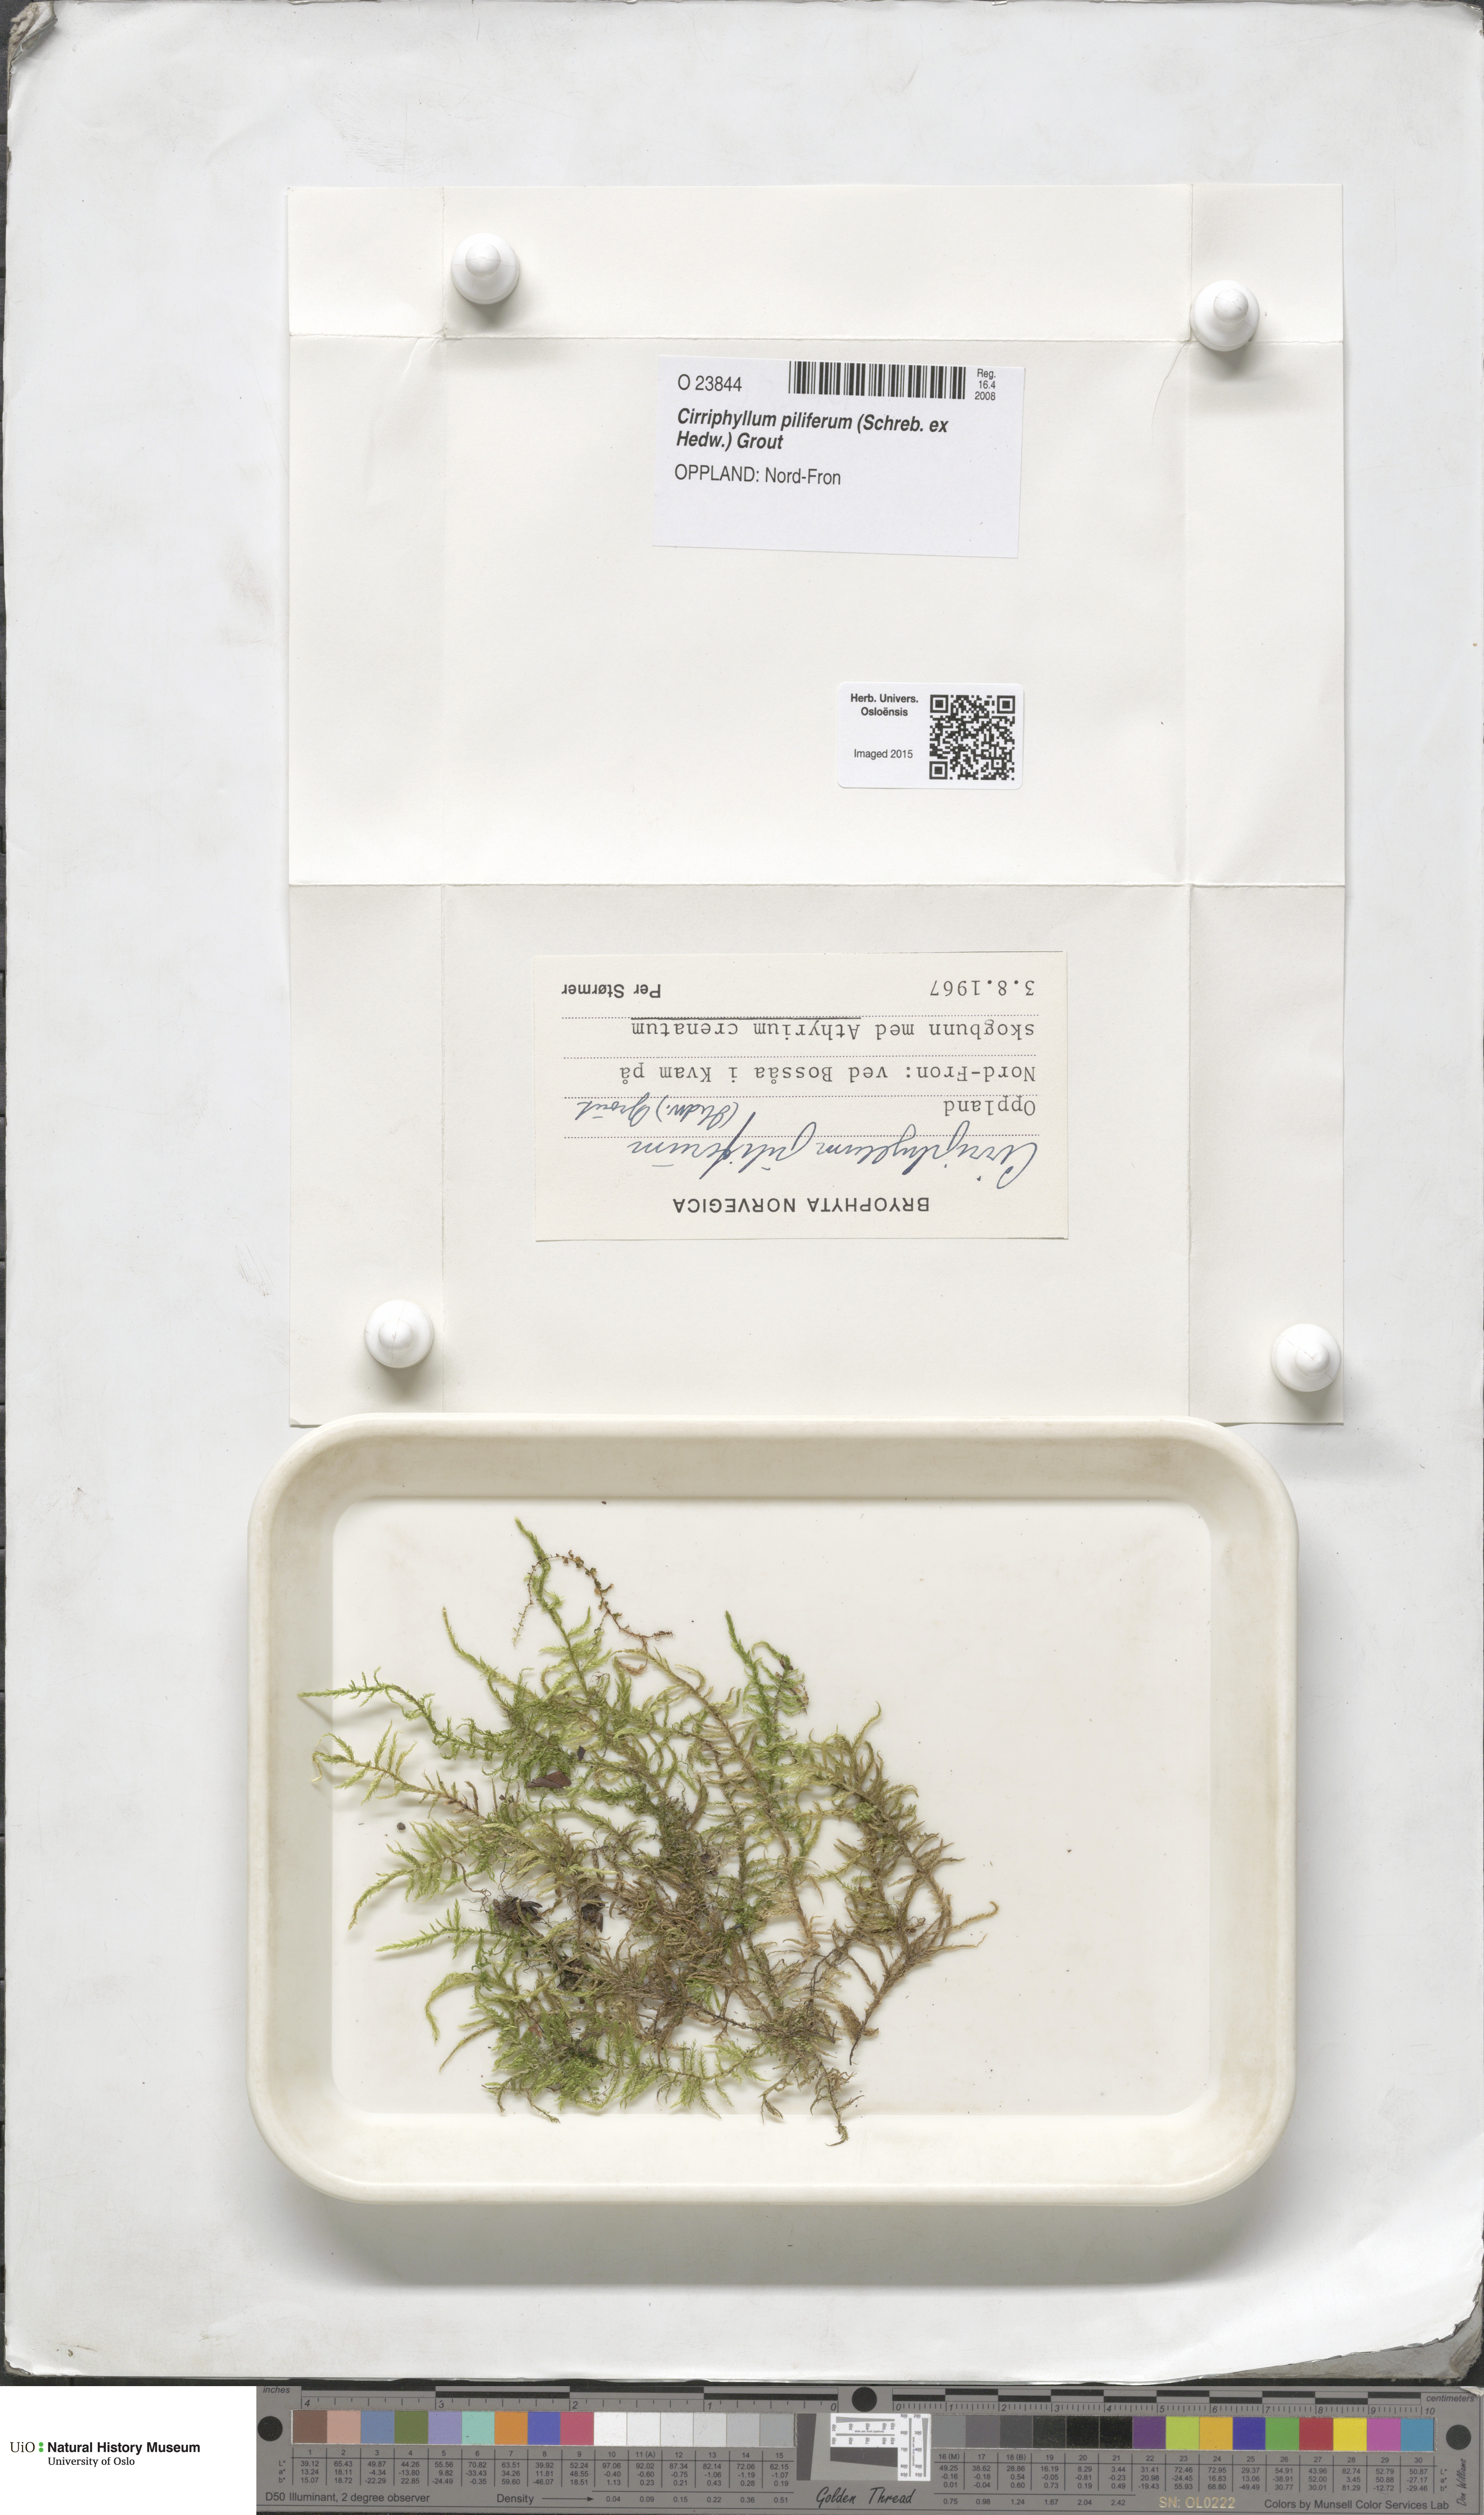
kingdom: Plantae
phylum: Bryophyta
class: Bryopsida
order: Hypnales
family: Brachytheciaceae
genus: Cirriphyllum
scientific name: Cirriphyllum piliferum
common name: Hair-pointed moss
